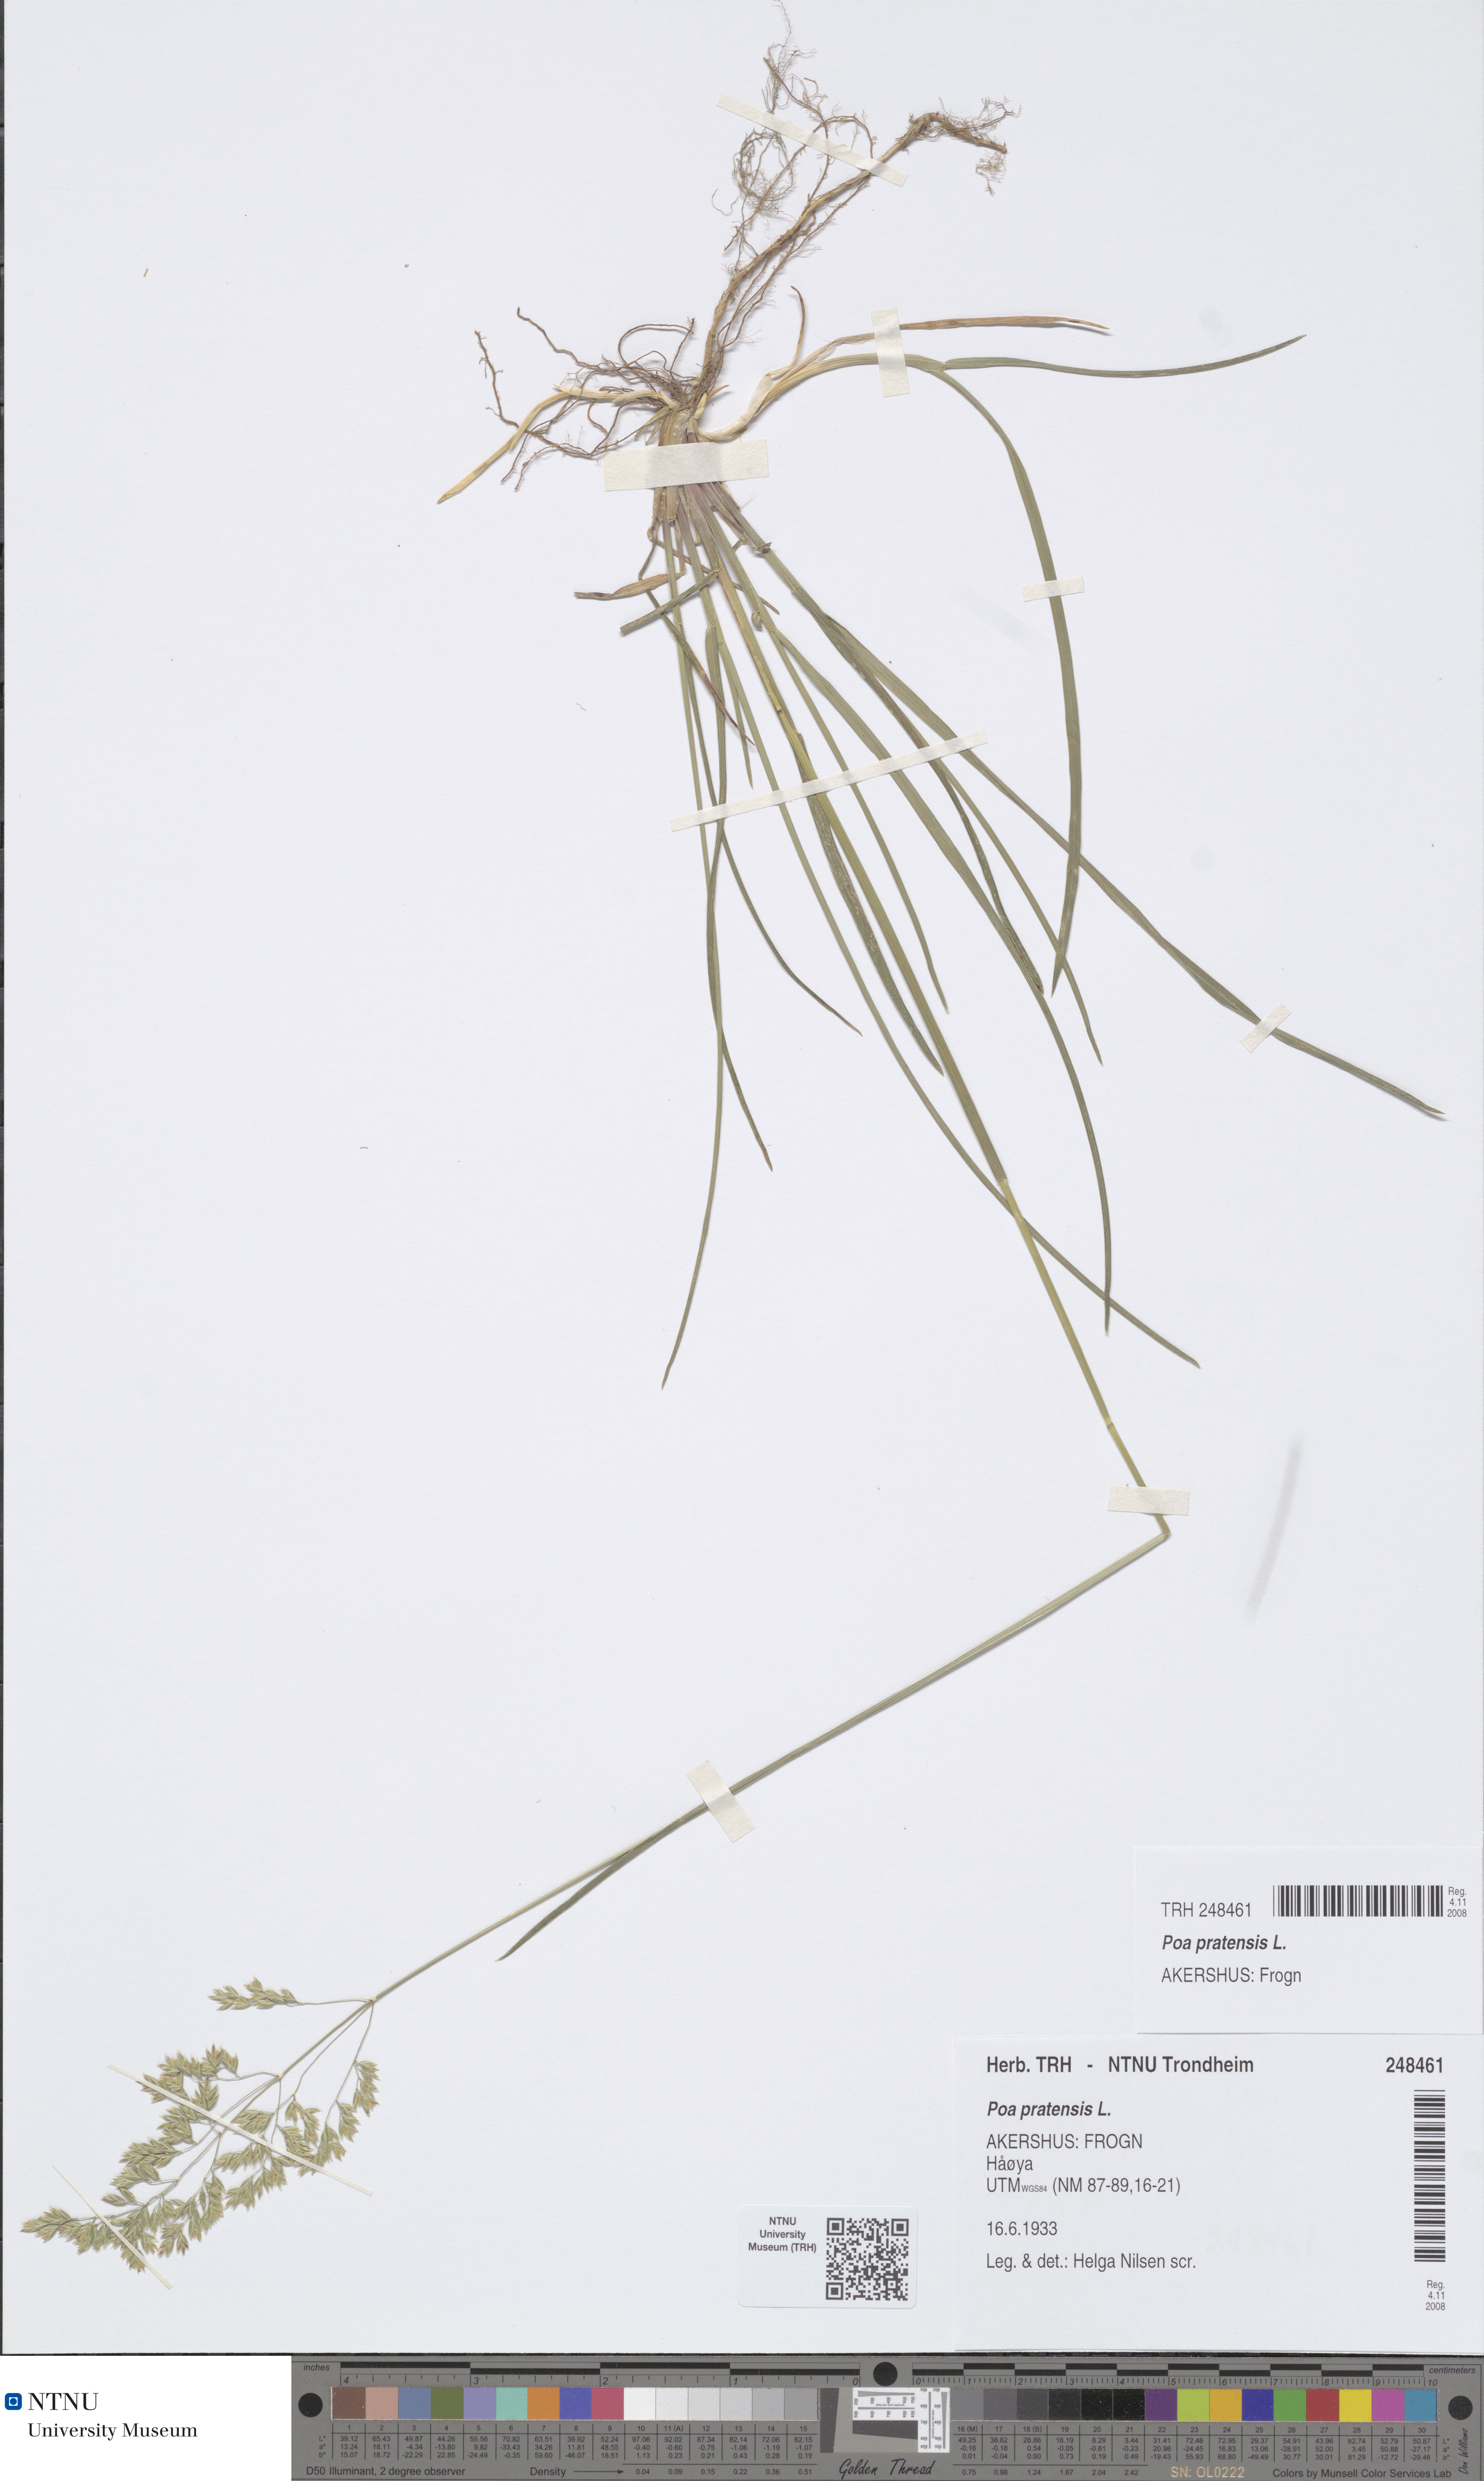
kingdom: Plantae
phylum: Tracheophyta
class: Liliopsida
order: Poales
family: Poaceae
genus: Poa
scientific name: Poa pratensis
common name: Kentucky bluegrass
